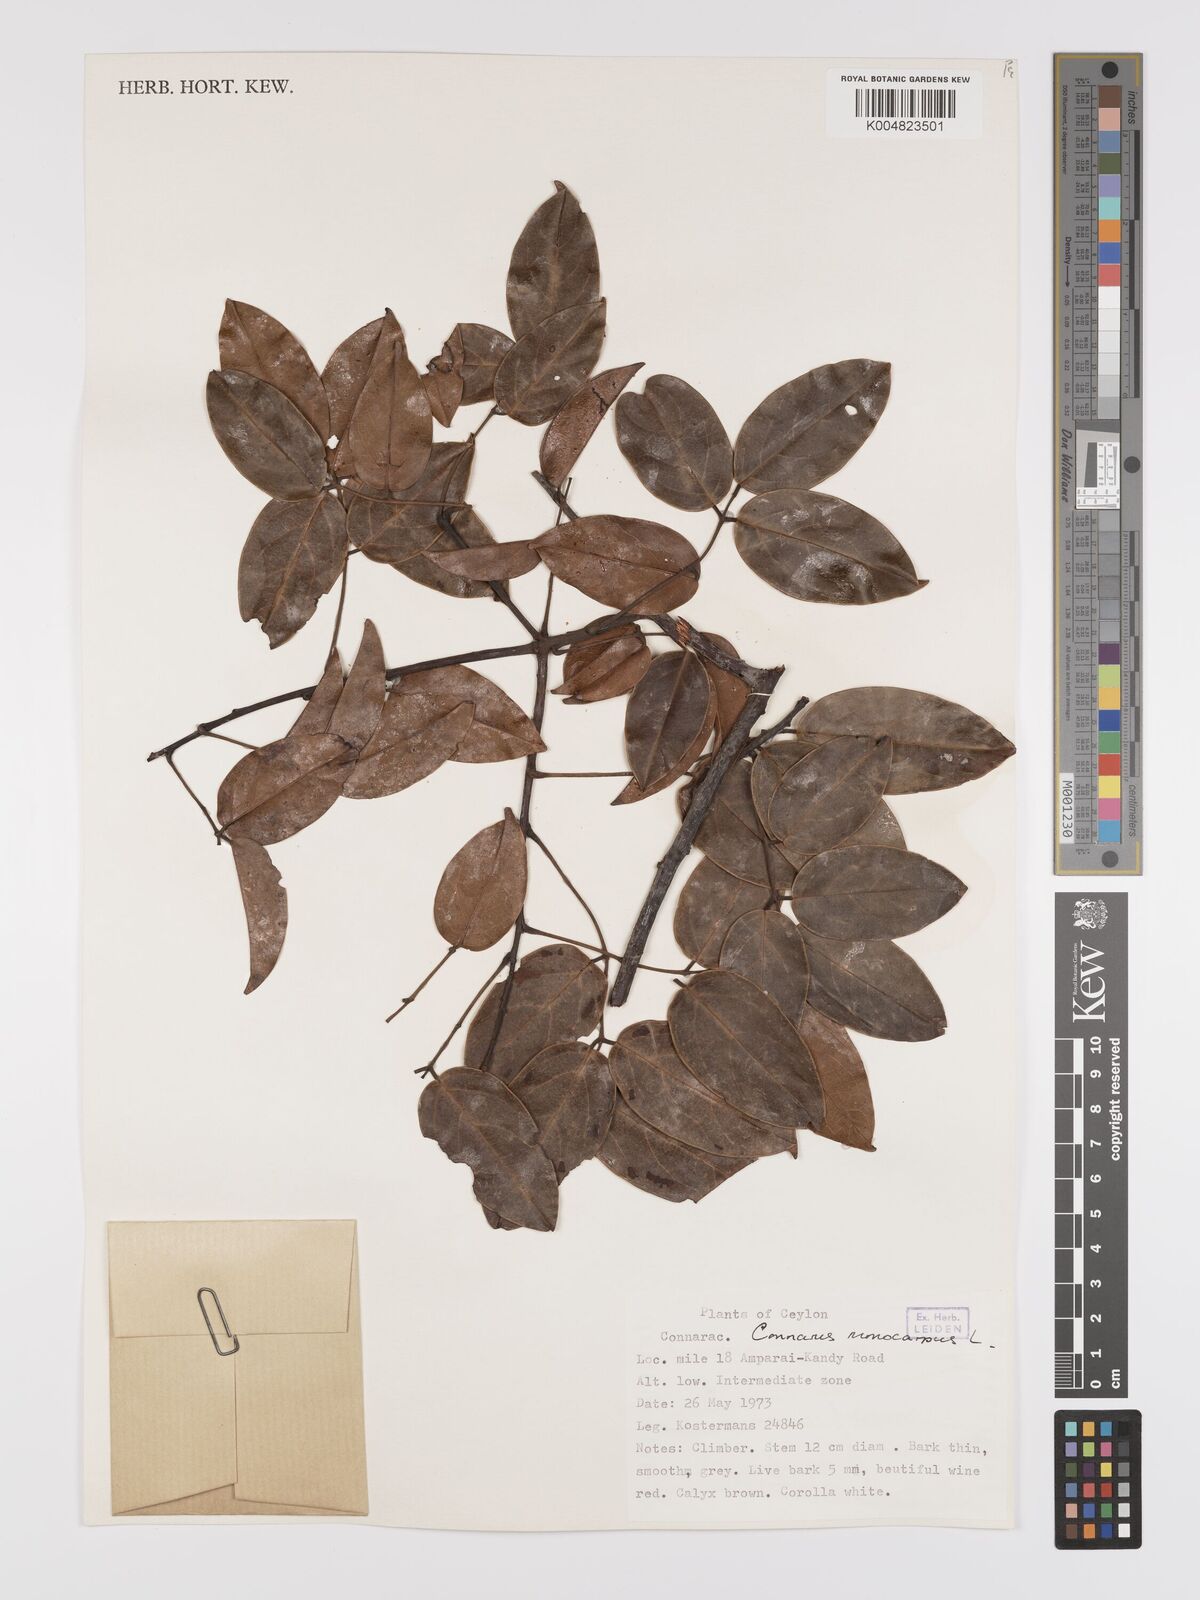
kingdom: Plantae
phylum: Tracheophyta
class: Magnoliopsida
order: Oxalidales
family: Connaraceae
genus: Connarus
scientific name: Connarus semidecandrus
